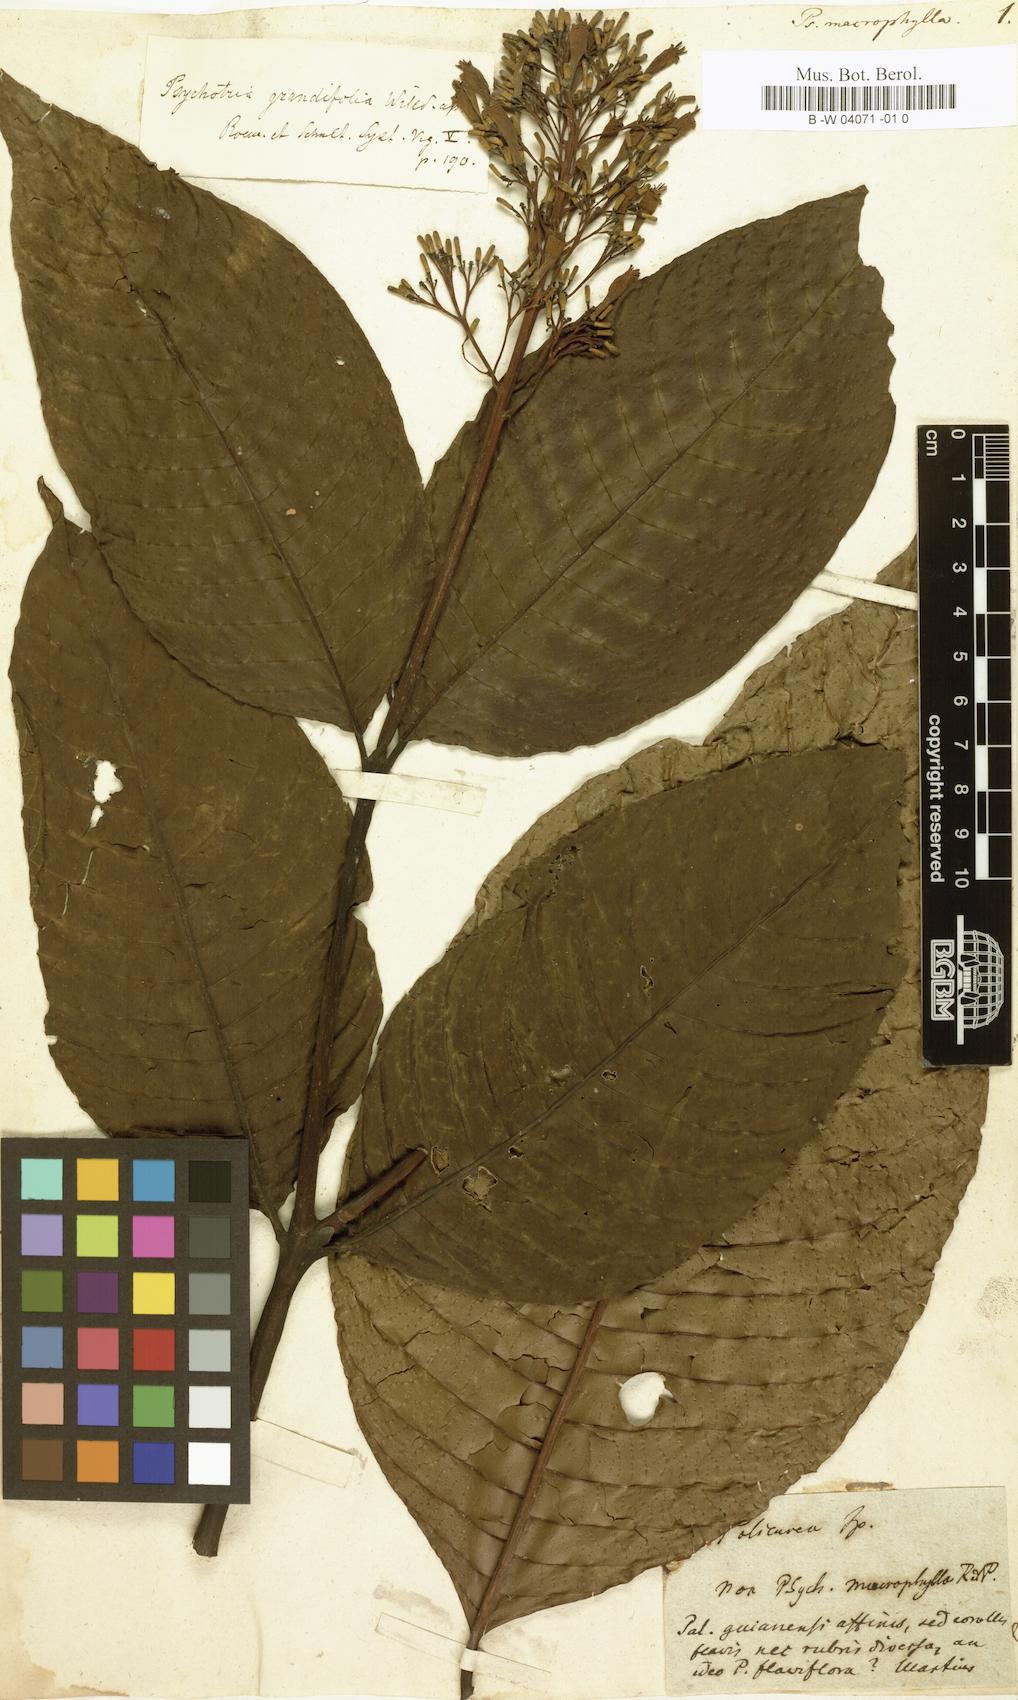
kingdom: Plantae
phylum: Tracheophyta
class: Magnoliopsida
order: Gentianales
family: Rubiaceae
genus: Psychotria
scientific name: Psychotria macrophylla
